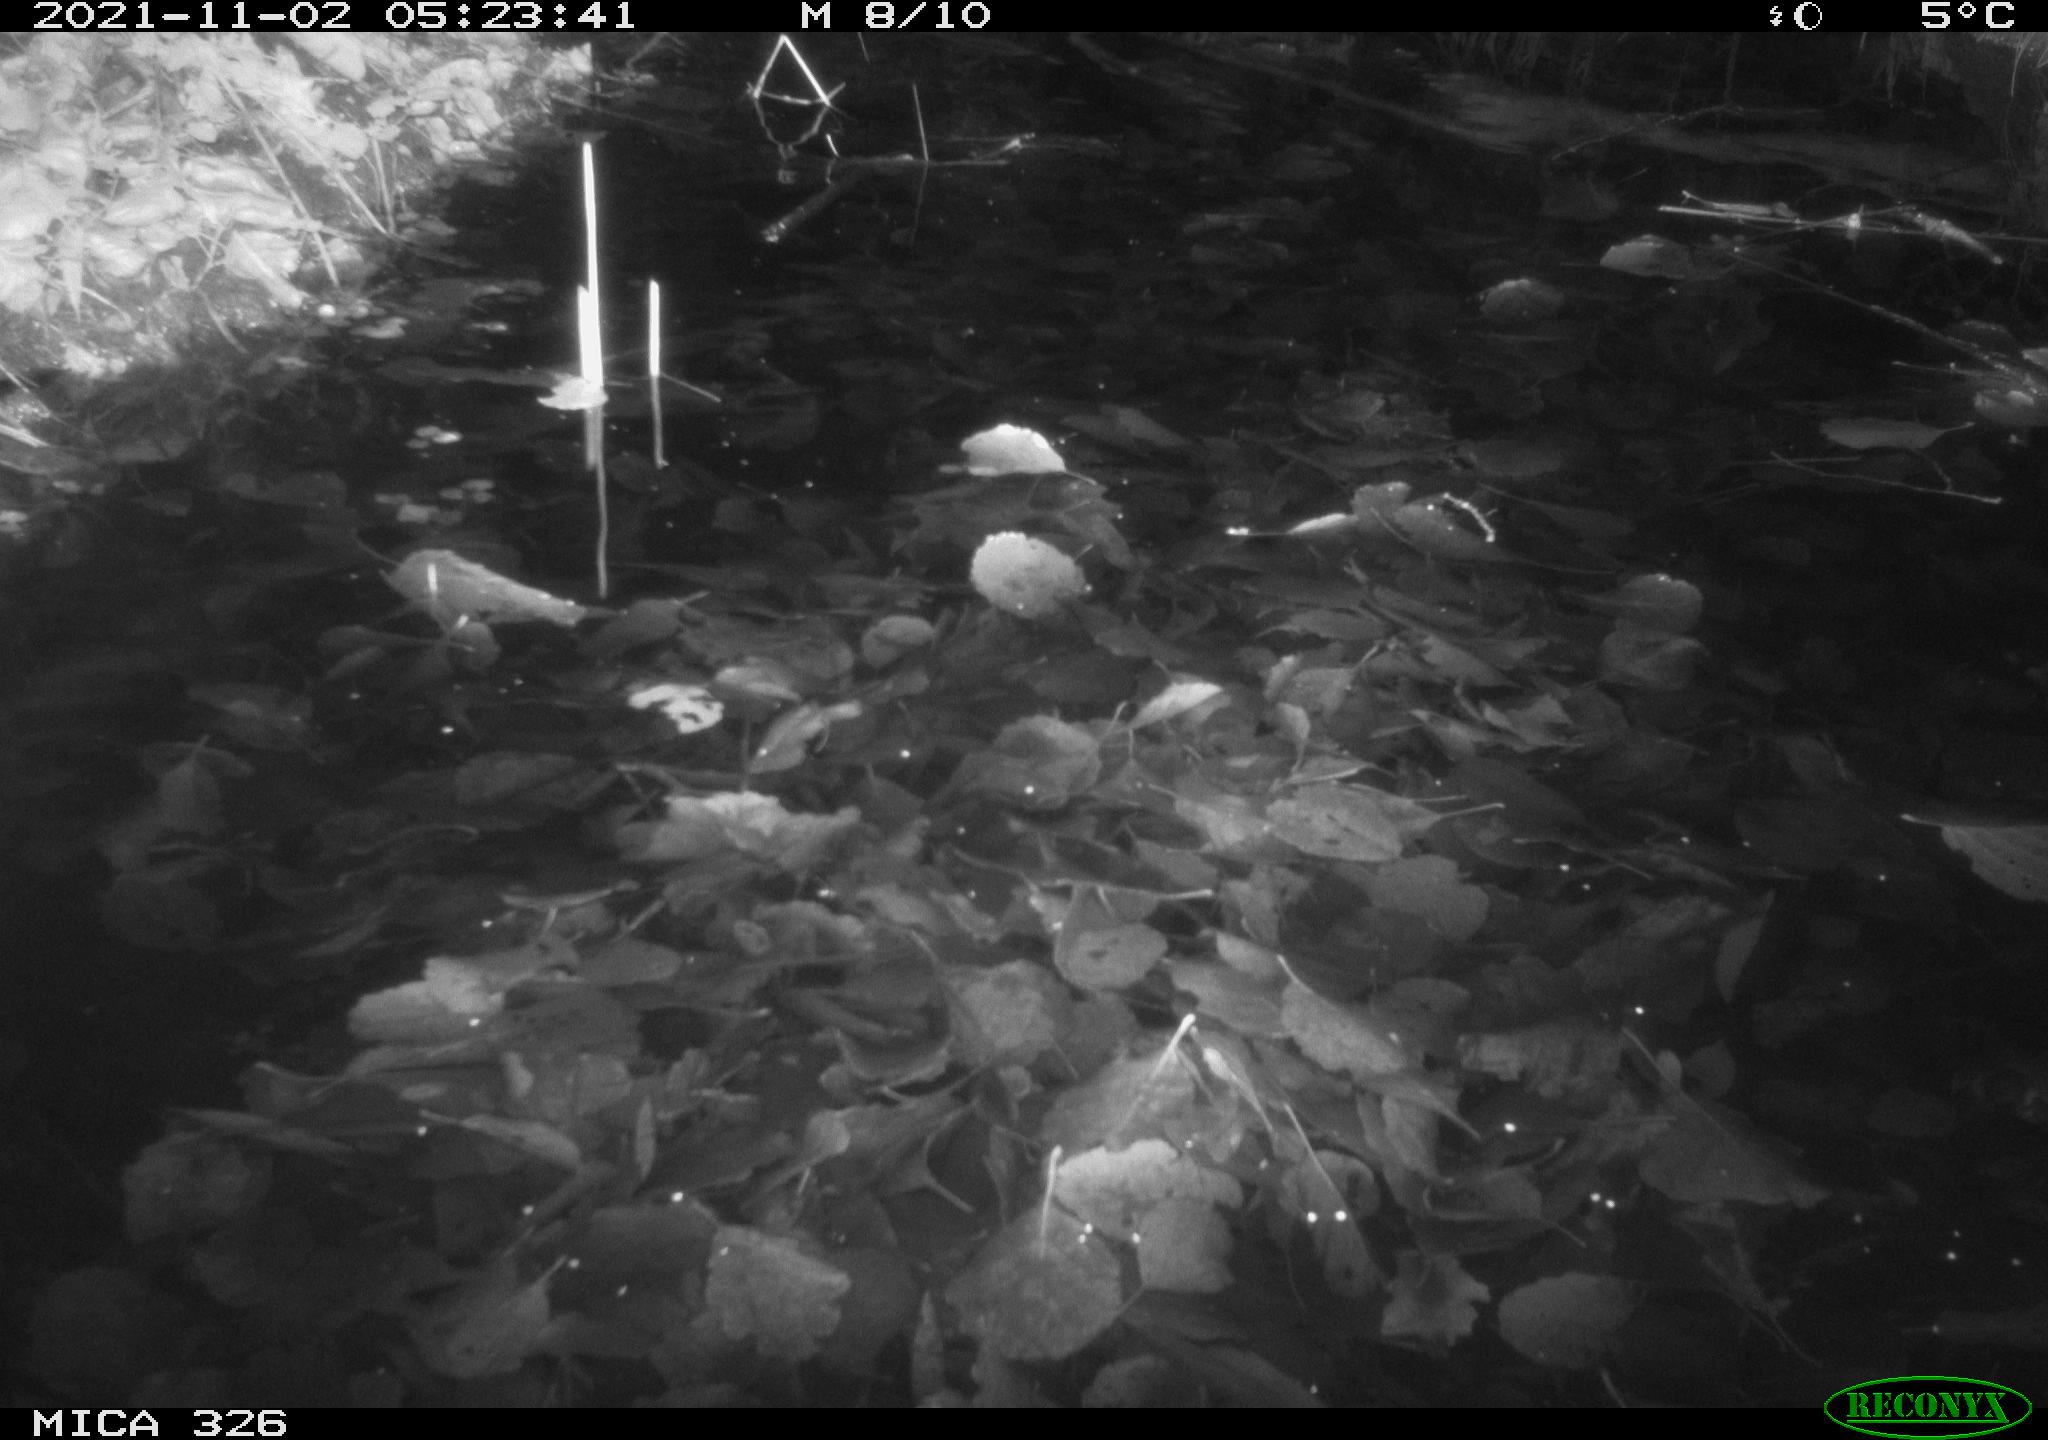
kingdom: Animalia
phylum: Chordata
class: Mammalia
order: Rodentia
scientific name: Rodentia
